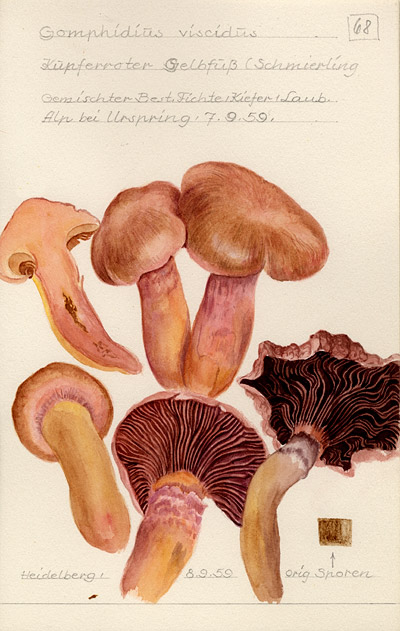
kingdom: Fungi
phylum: Basidiomycota
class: Agaricomycetes
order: Boletales
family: Gomphidiaceae
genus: Chroogomphus
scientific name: Chroogomphus rutilus
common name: Copper spike
